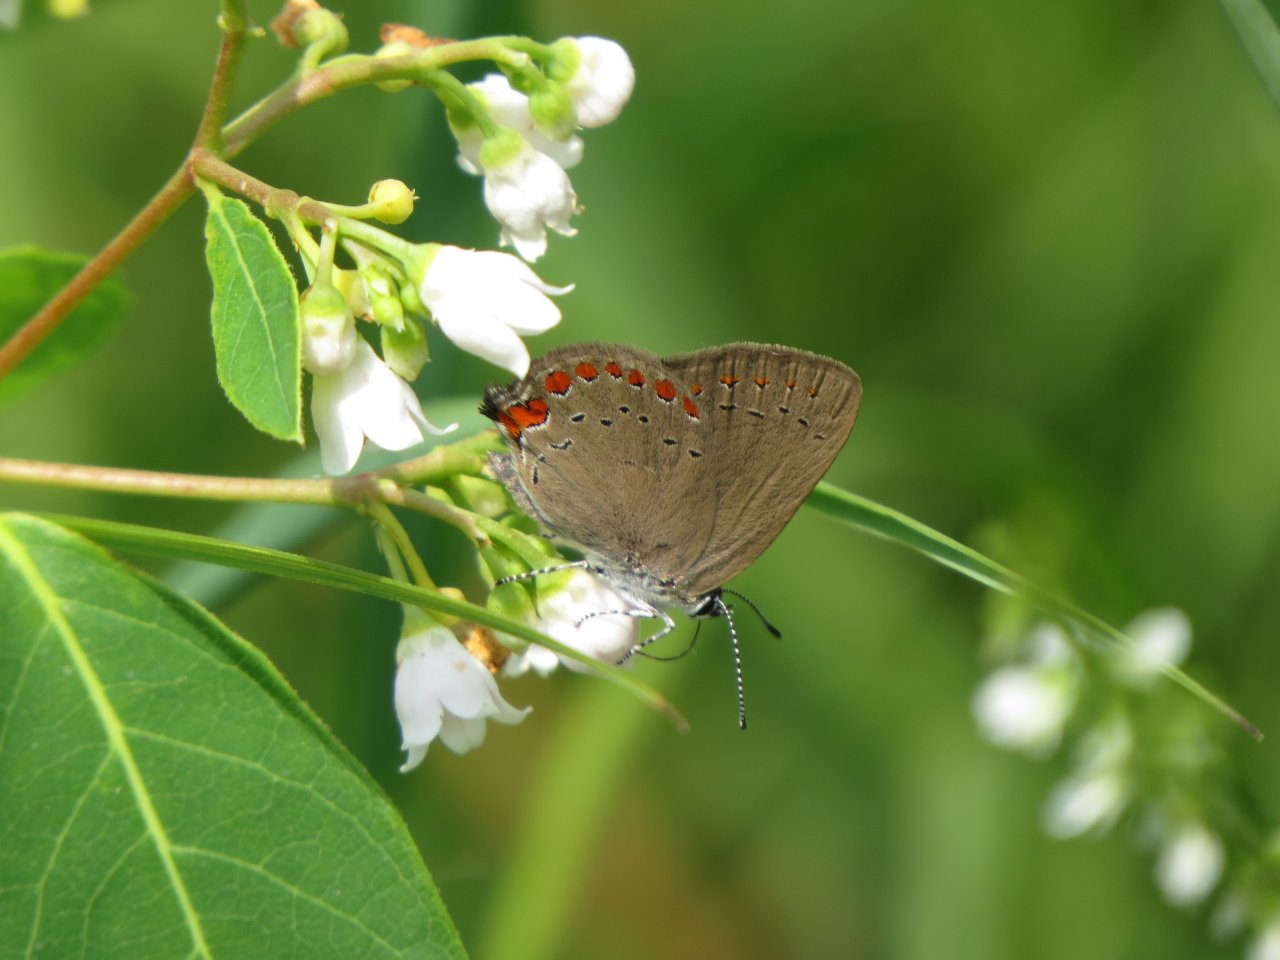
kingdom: Animalia
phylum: Arthropoda
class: Insecta
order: Lepidoptera
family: Lycaenidae
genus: Harkenclenus
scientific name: Harkenclenus titus
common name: Coral Hairstreak
